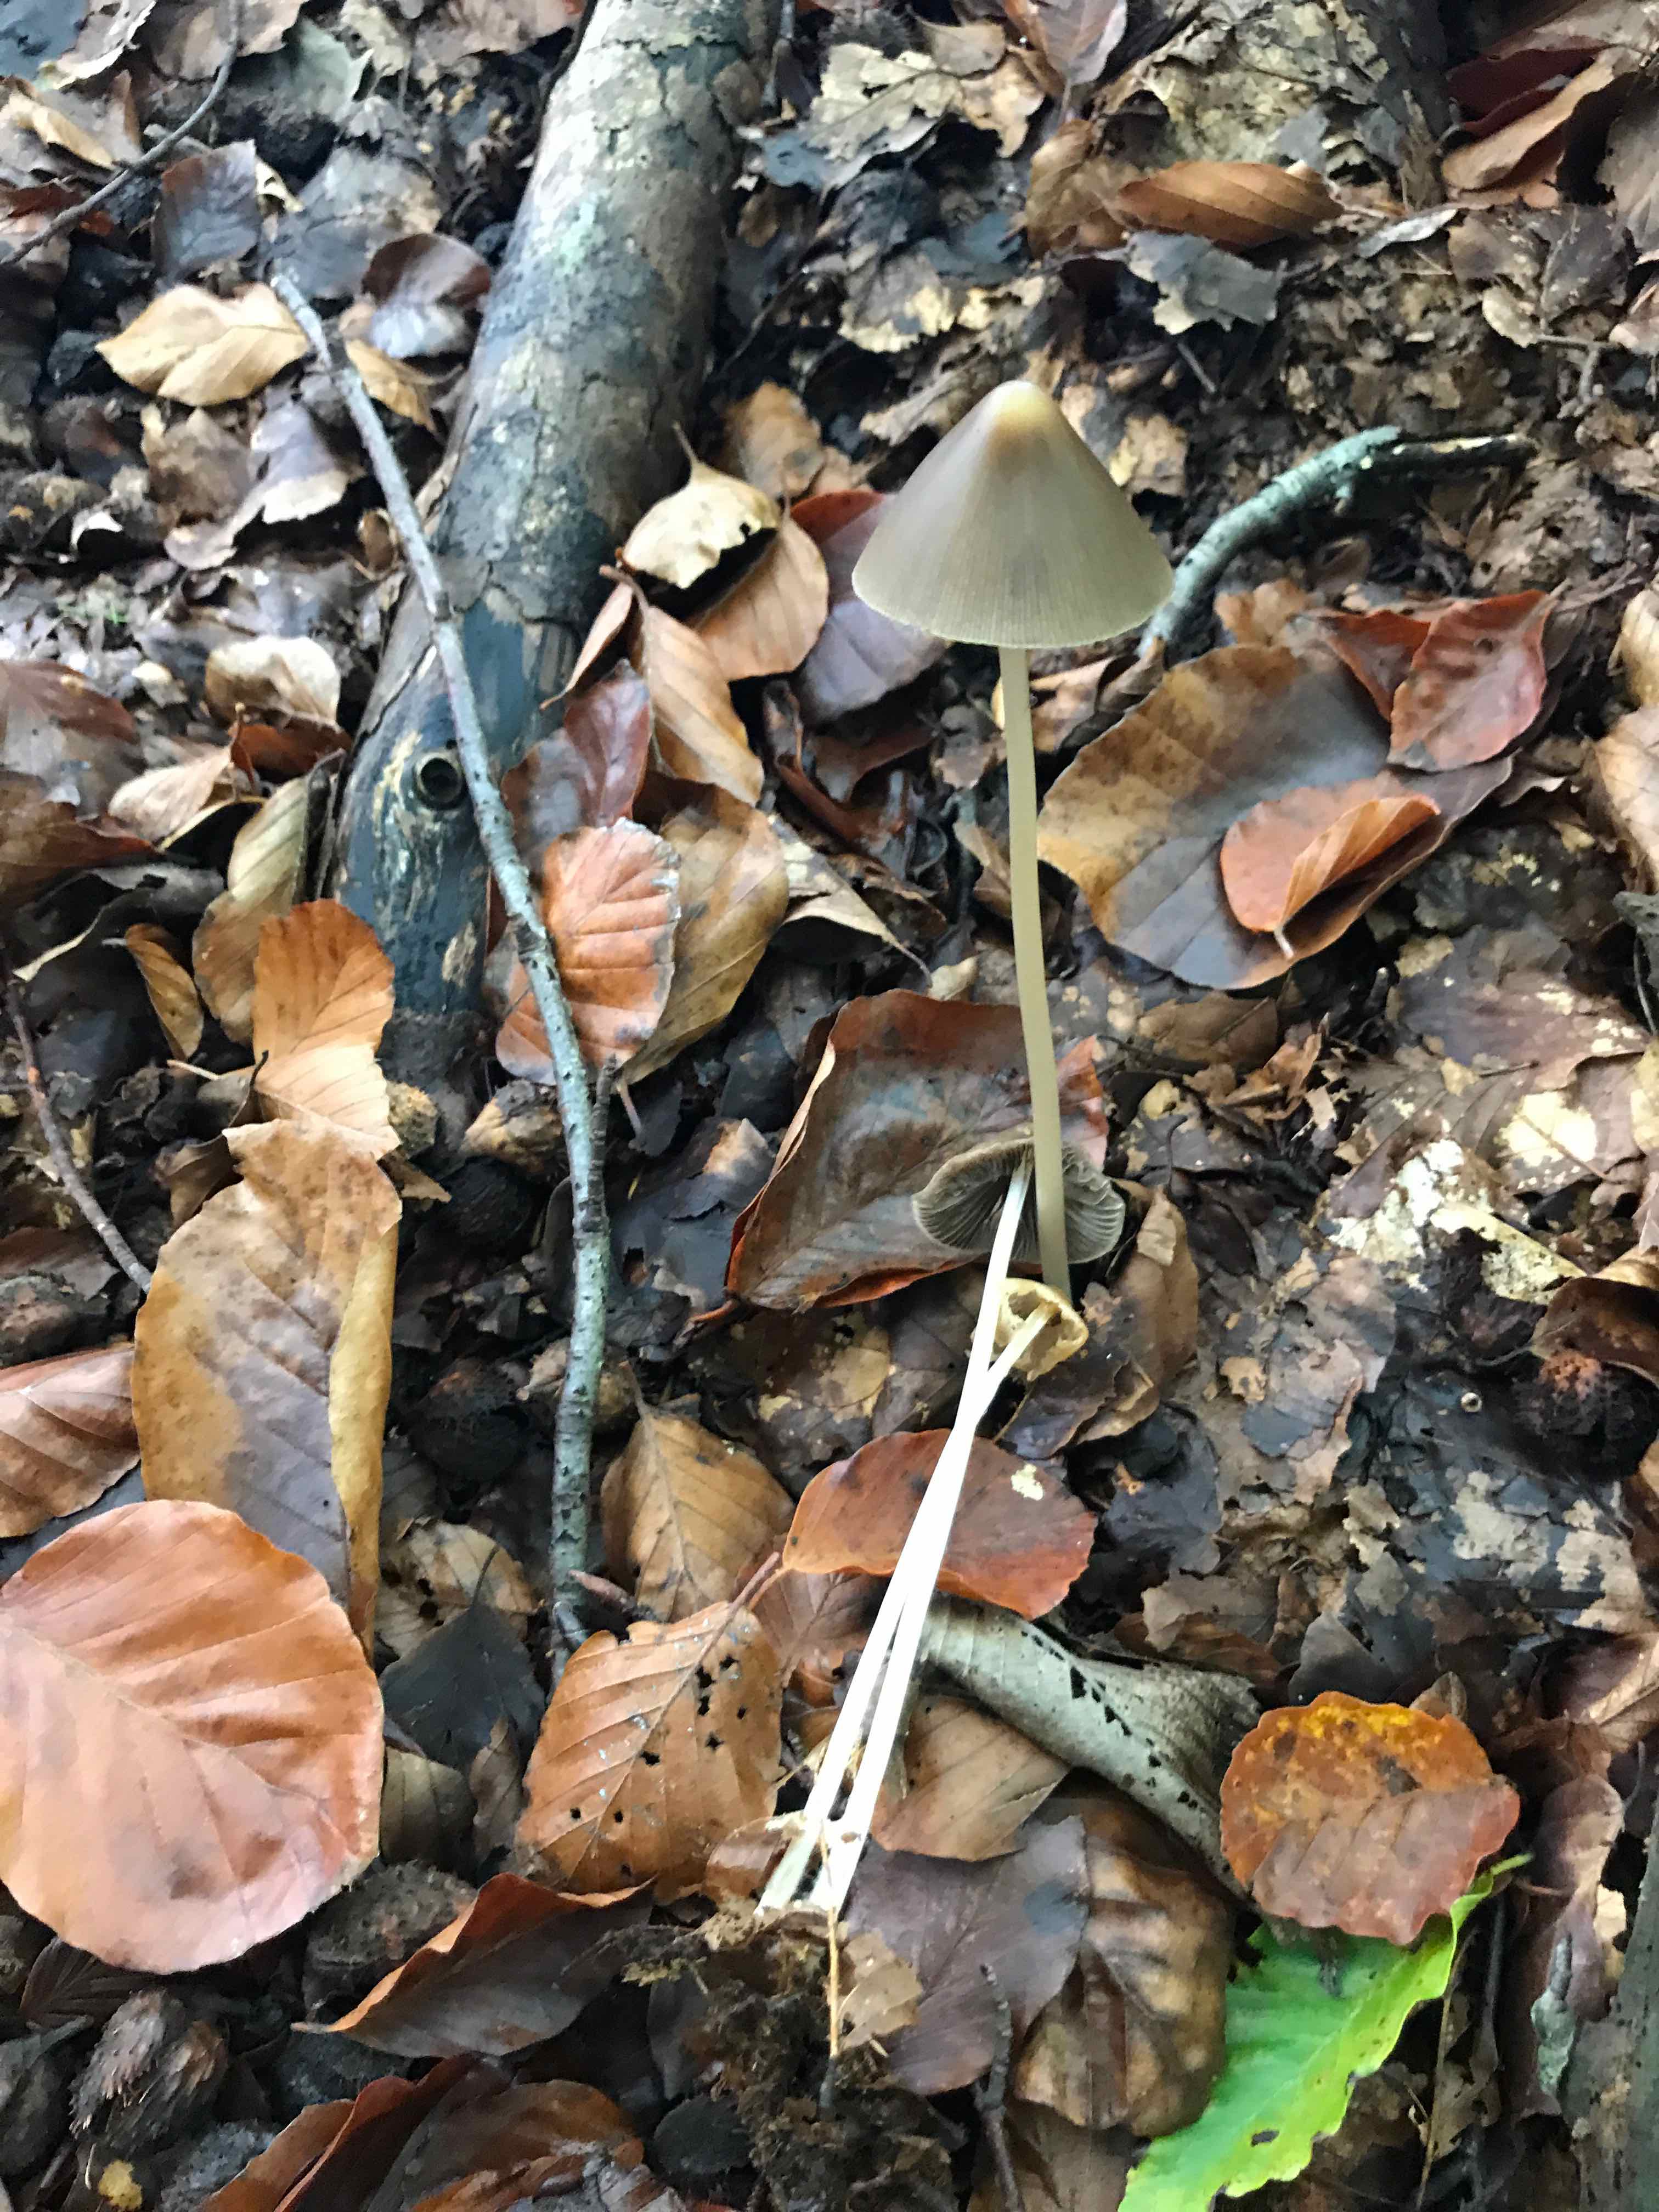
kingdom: Fungi
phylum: Basidiomycota
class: Agaricomycetes
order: Agaricales
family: Psathyrellaceae
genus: Parasola
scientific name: Parasola conopilea
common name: kegle-hjulhat
